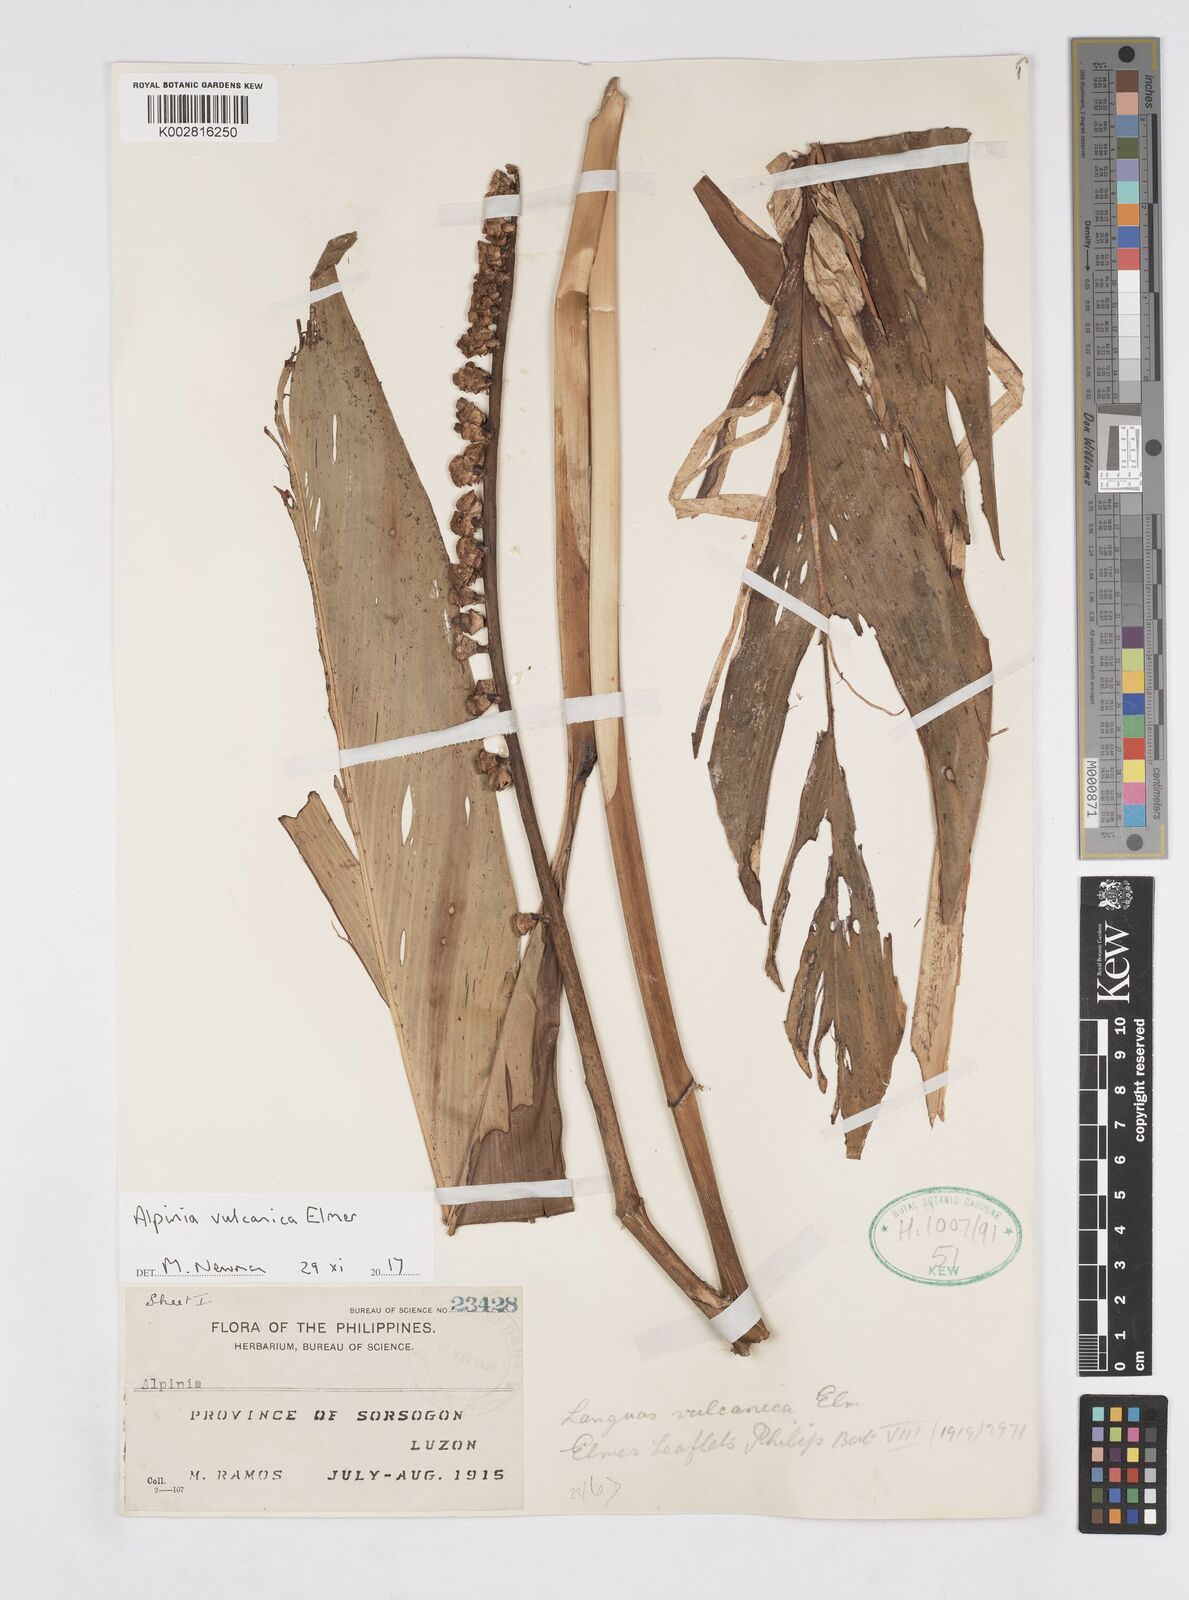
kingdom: Plantae
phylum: Tracheophyta
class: Liliopsida
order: Zingiberales
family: Zingiberaceae
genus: Alpinia
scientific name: Alpinia vulcanica
